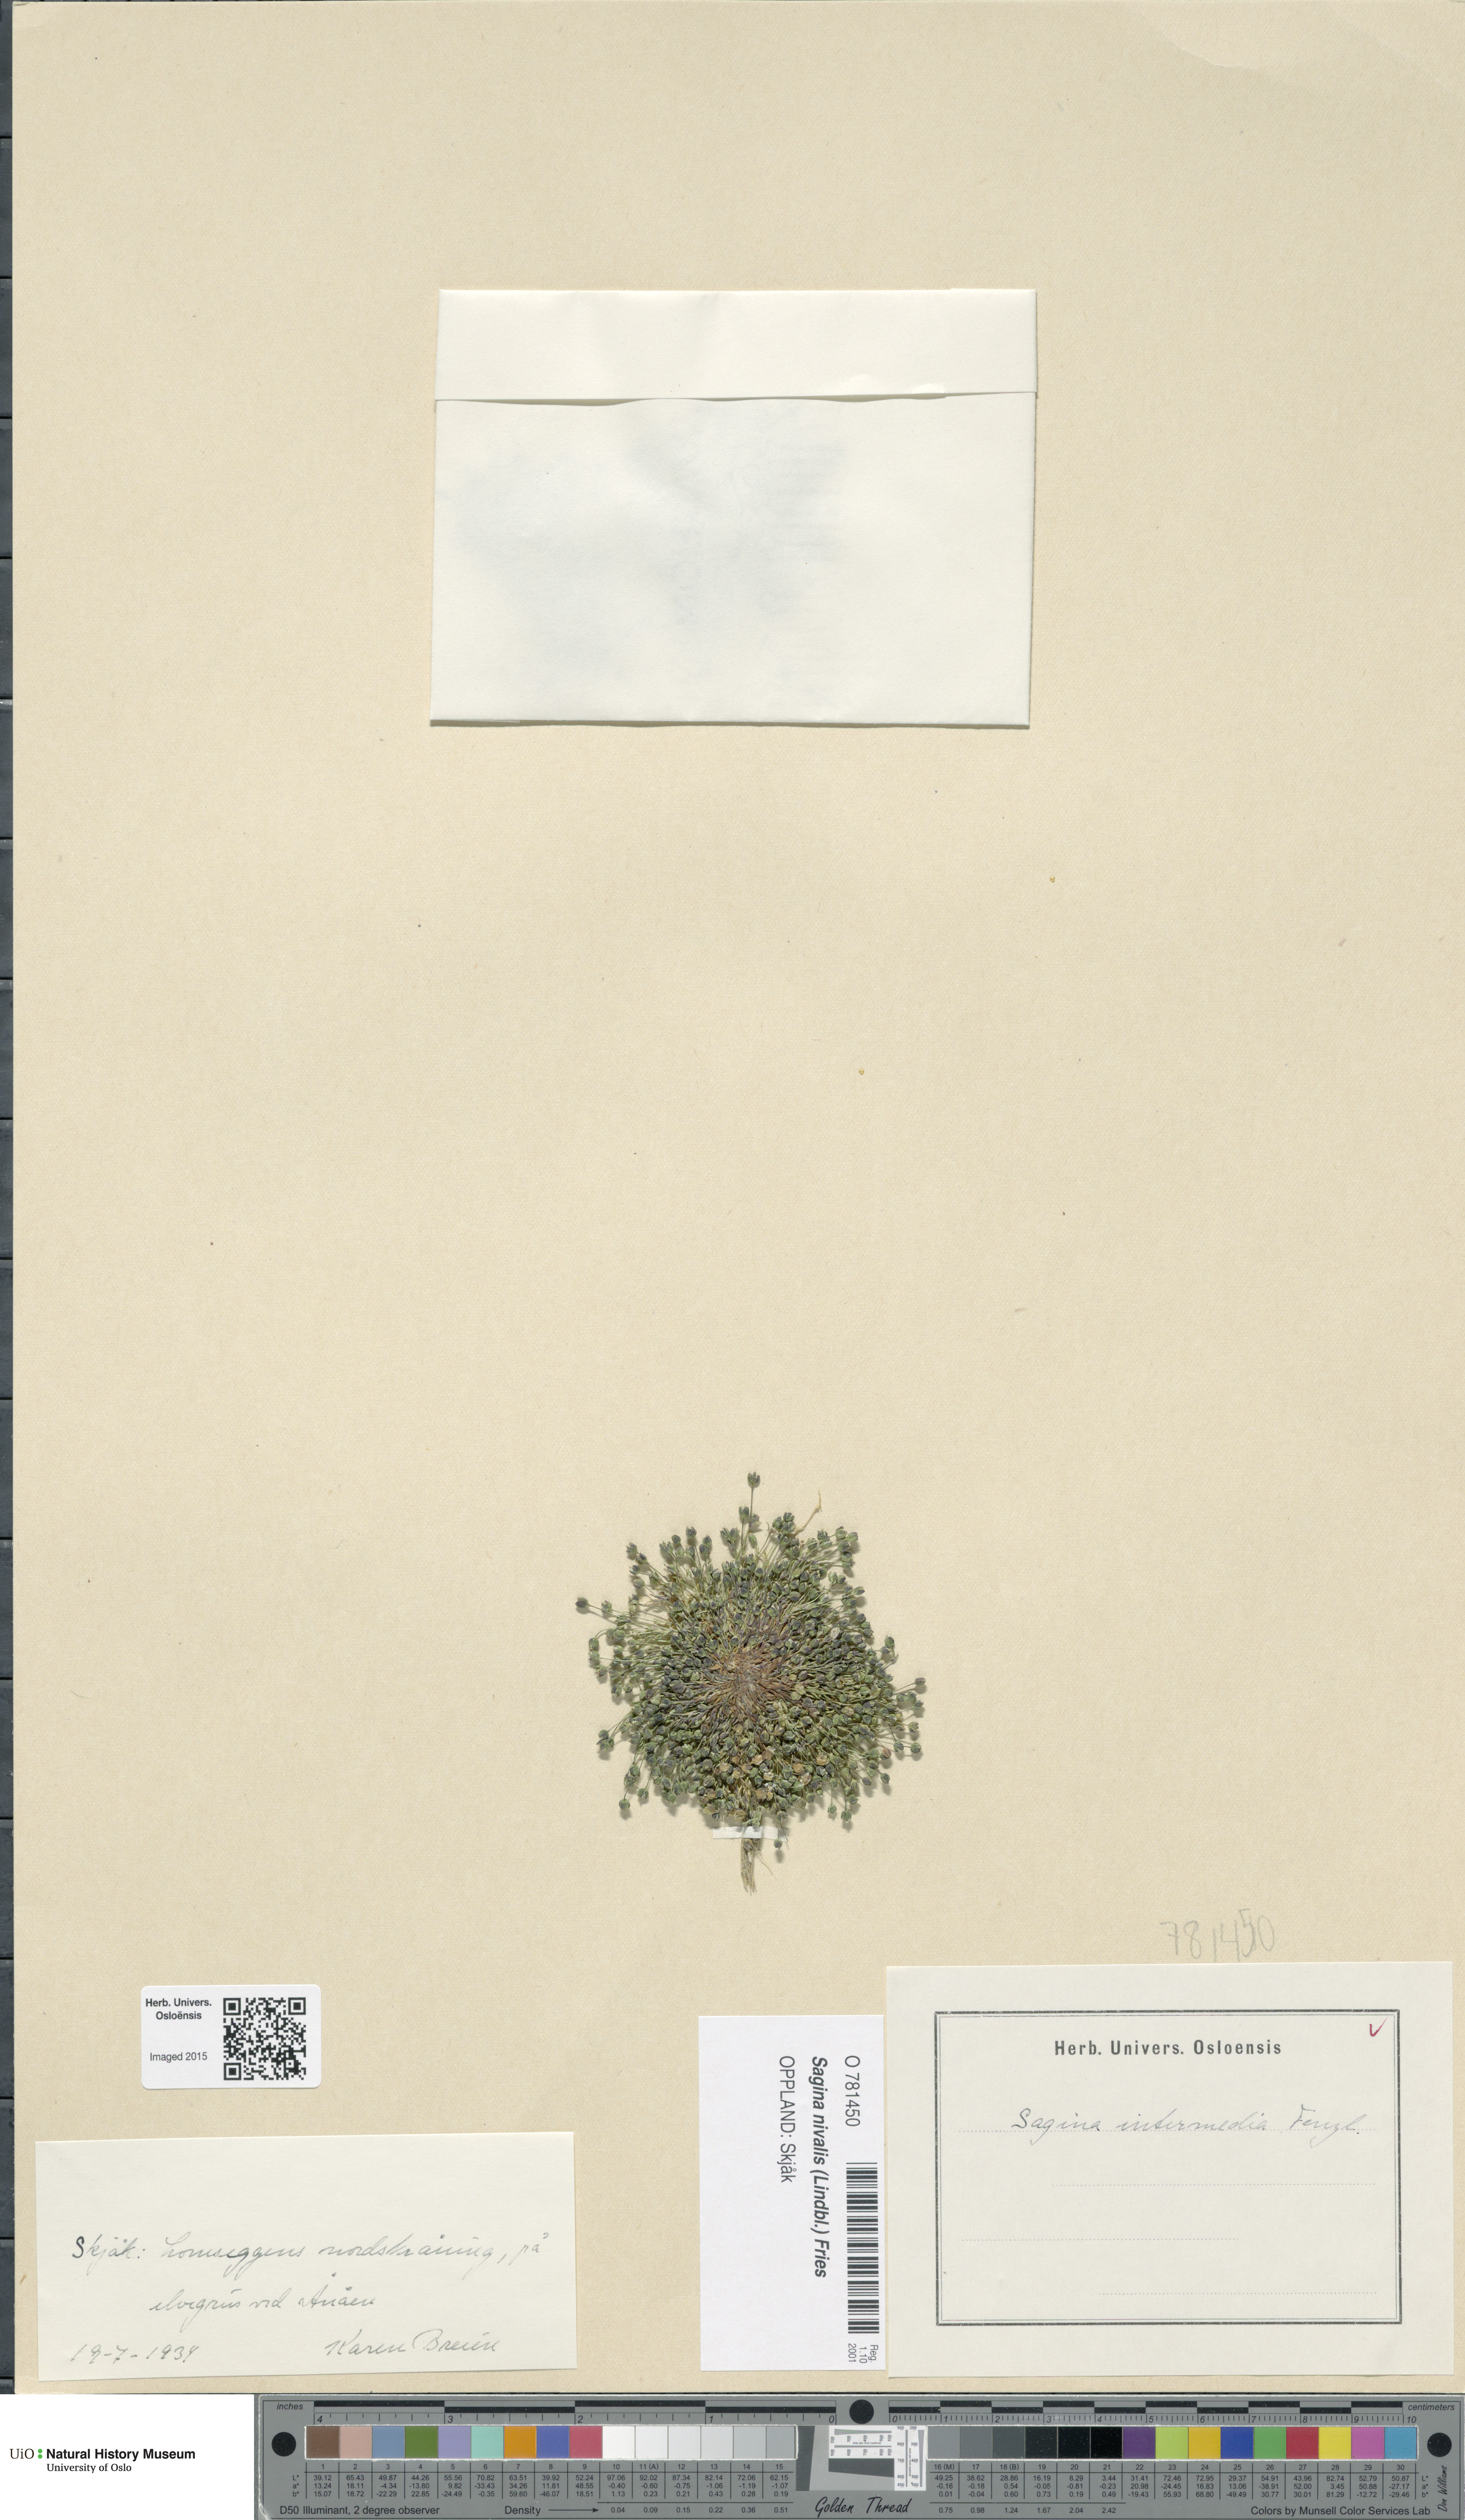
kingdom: Plantae
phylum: Tracheophyta
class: Magnoliopsida
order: Caryophyllales
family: Caryophyllaceae
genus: Sagina
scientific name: Sagina nivalis
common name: Snow pearlwort
